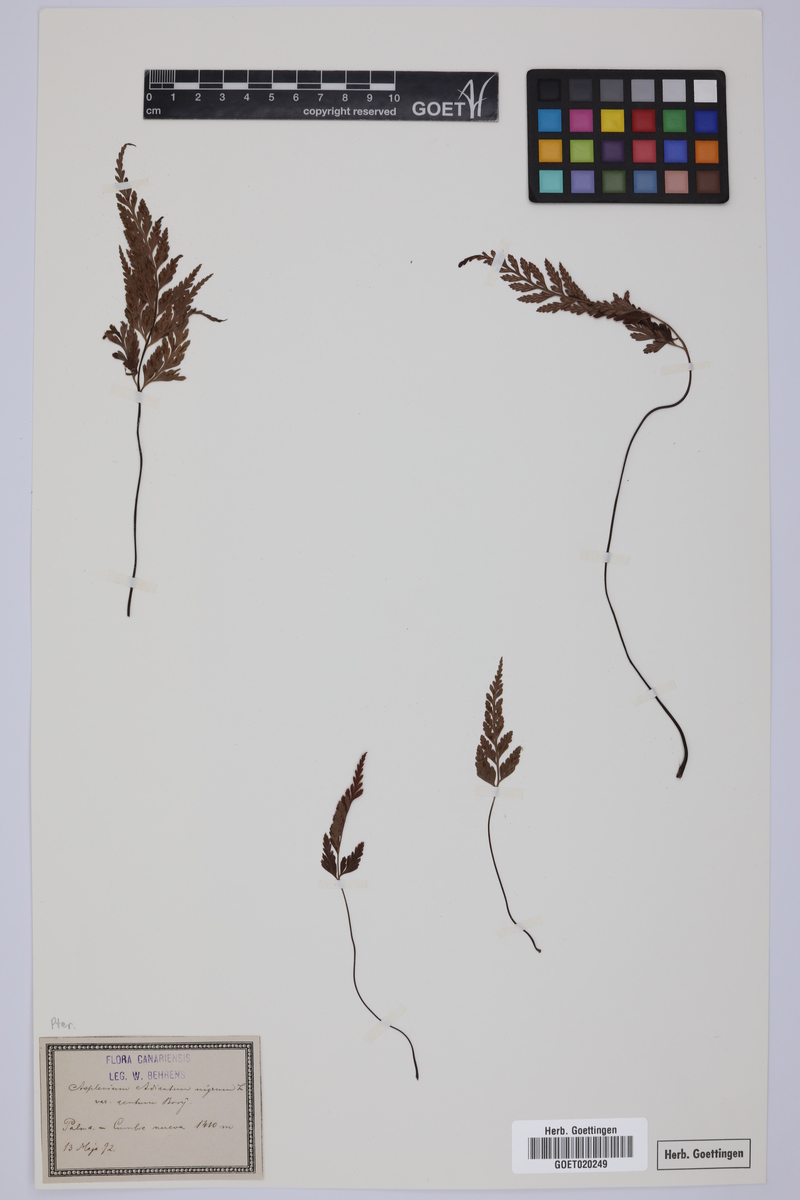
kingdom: Plantae
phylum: Tracheophyta
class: Polypodiopsida
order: Polypodiales
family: Aspleniaceae
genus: Asplenium
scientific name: Asplenium onopteris
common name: Irish spleenwort
